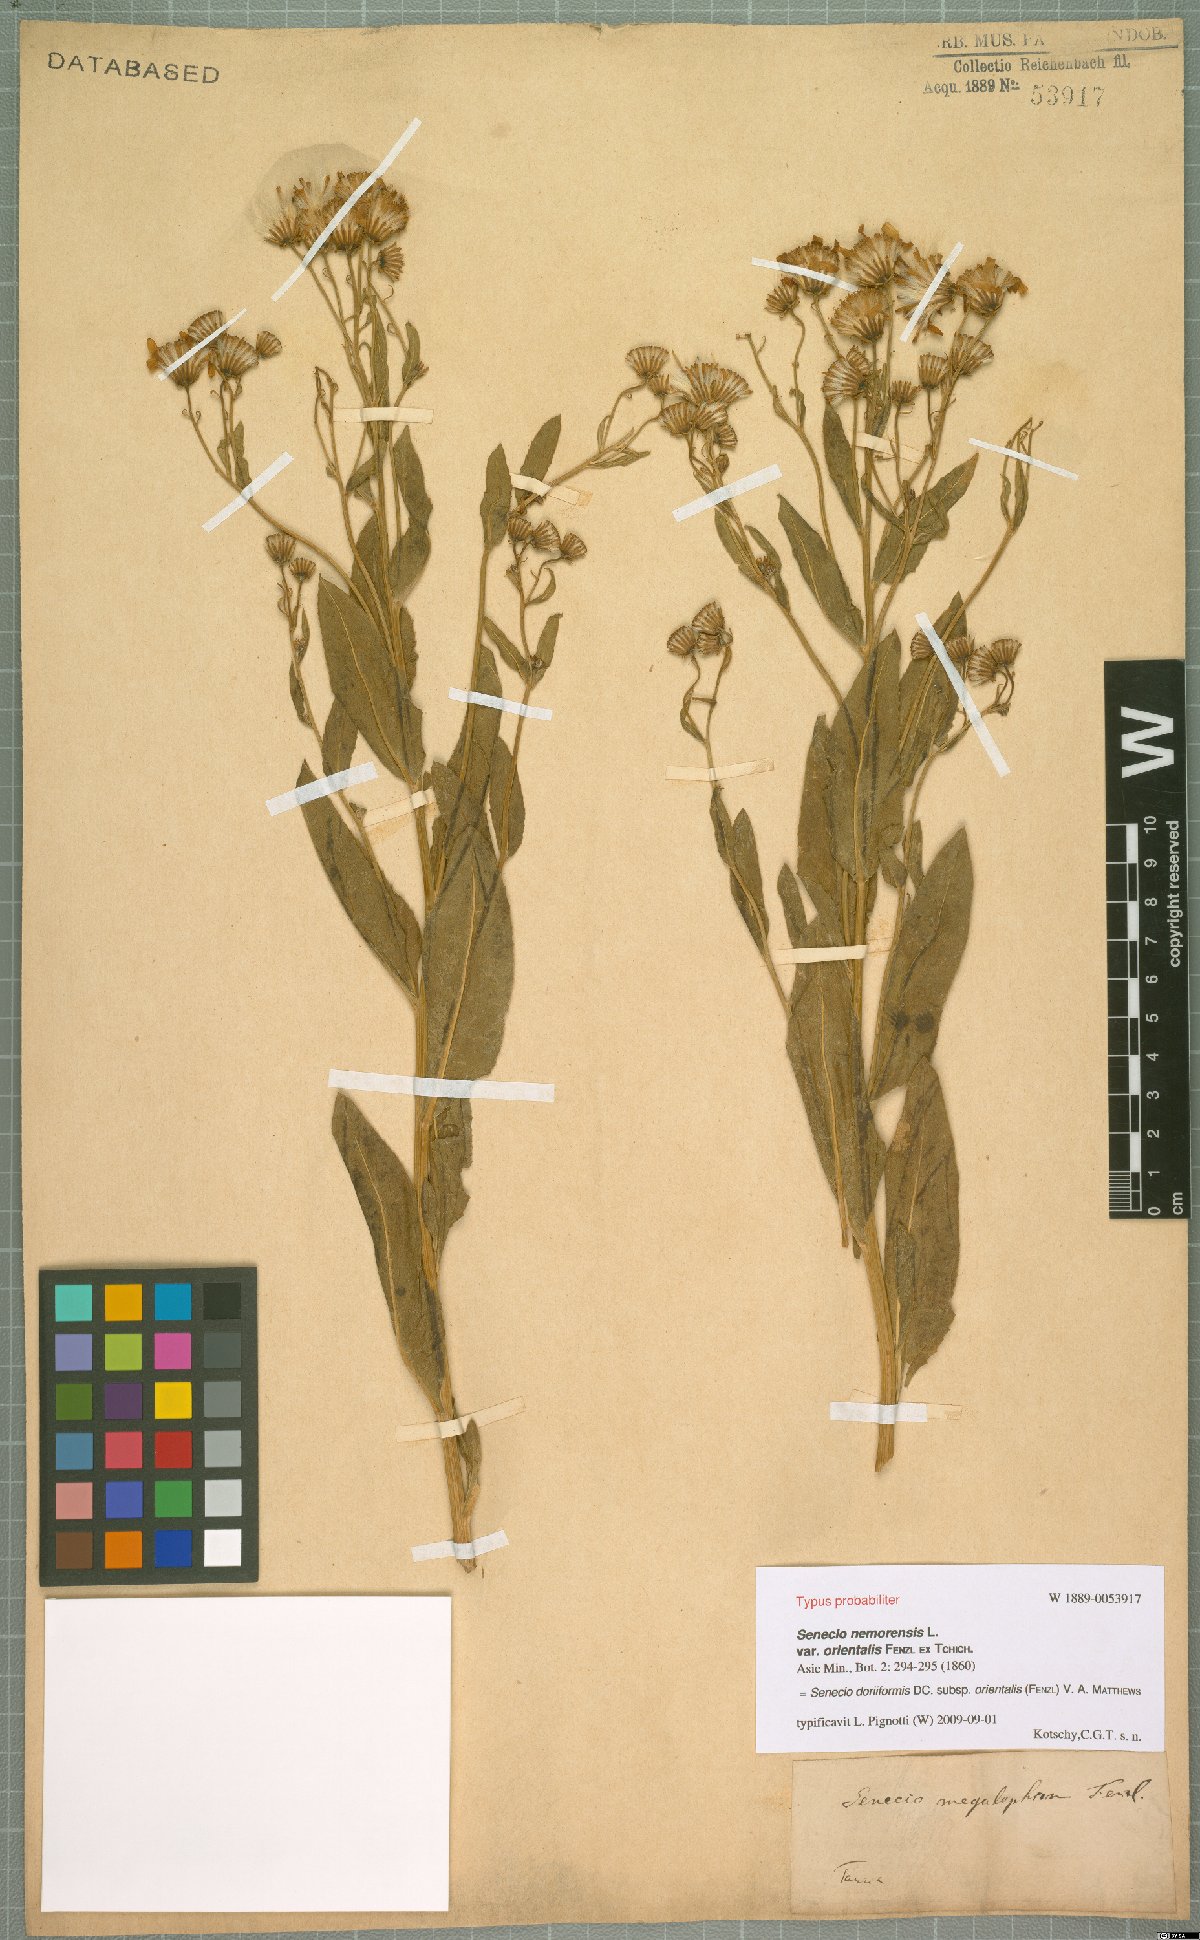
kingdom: Plantae
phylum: Tracheophyta
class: Magnoliopsida
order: Asterales
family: Asteraceae
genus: Senecio
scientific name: Senecio doriiformis
